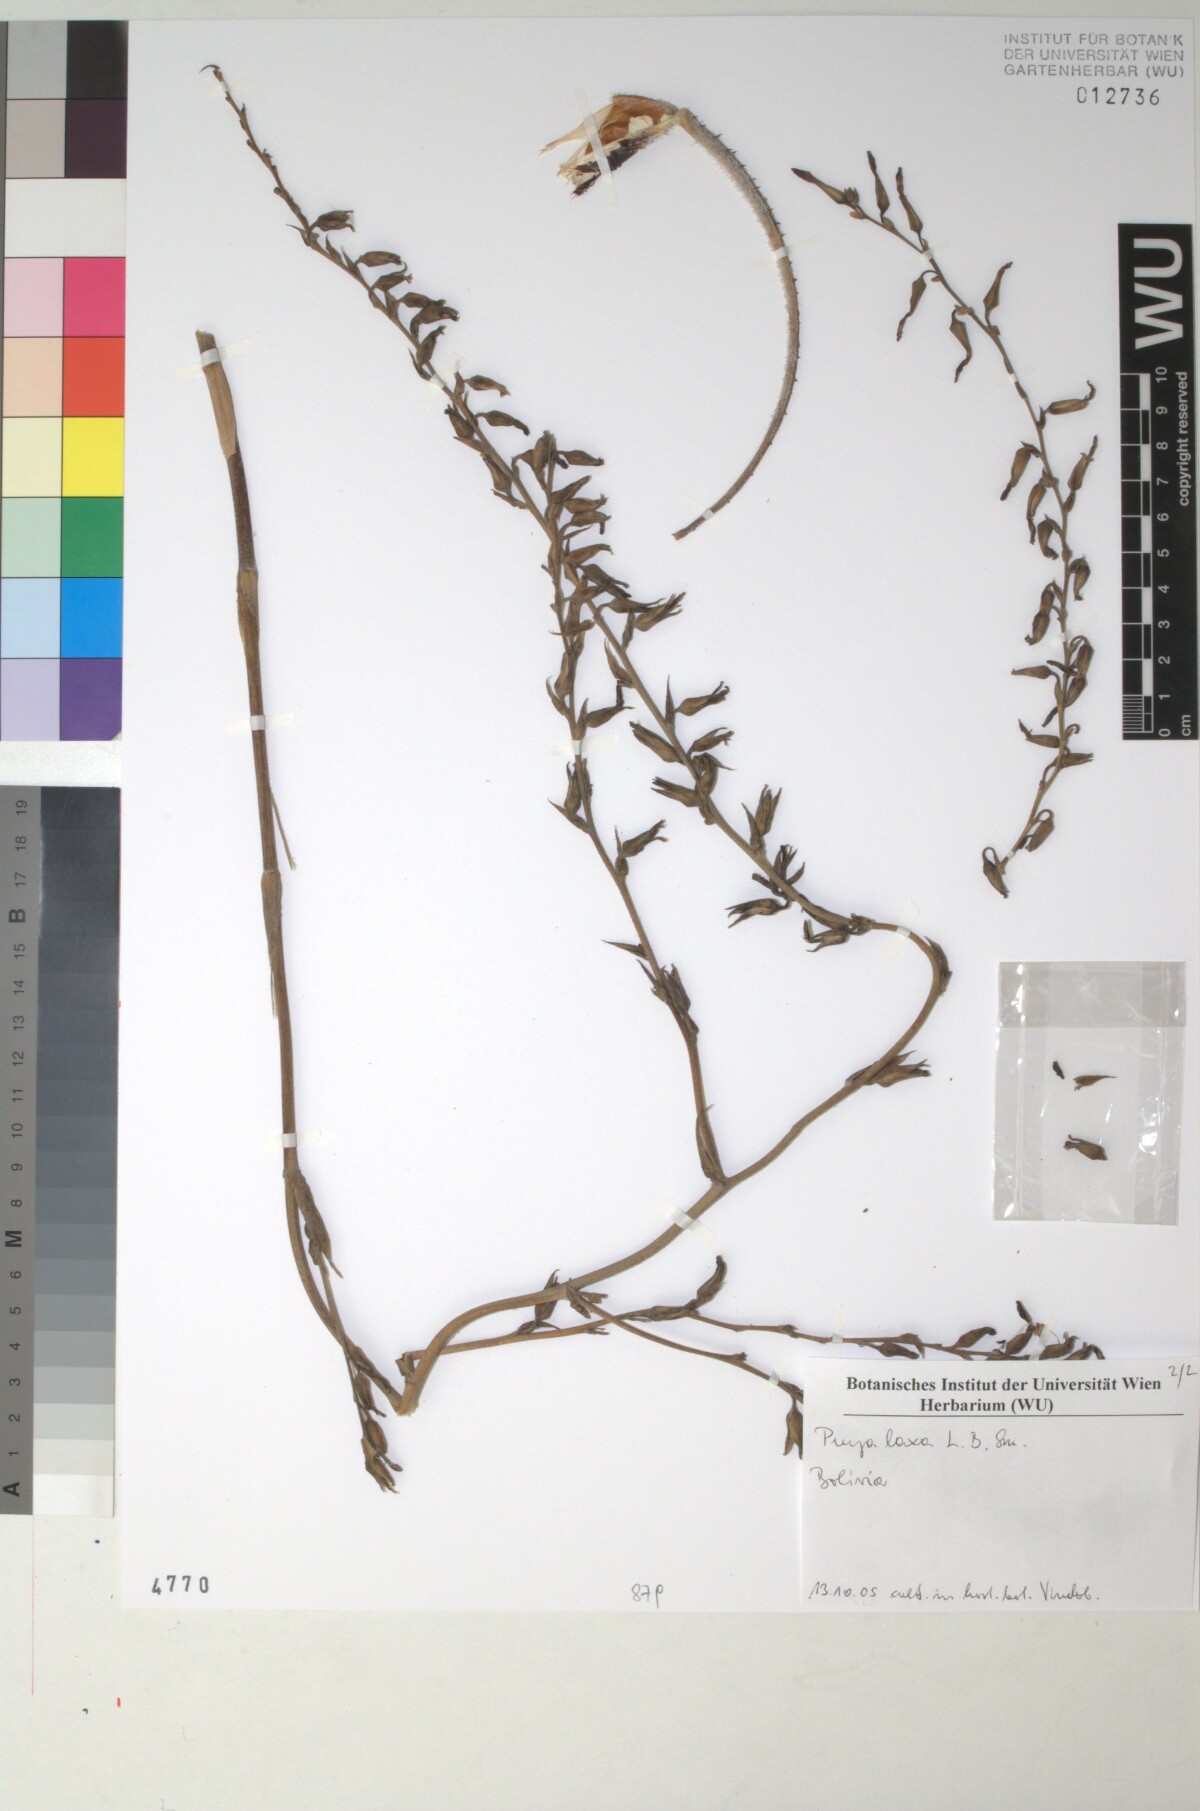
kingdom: Plantae
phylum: Tracheophyta
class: Liliopsida
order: Poales
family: Bromeliaceae
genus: Puya
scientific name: Puya laxa
